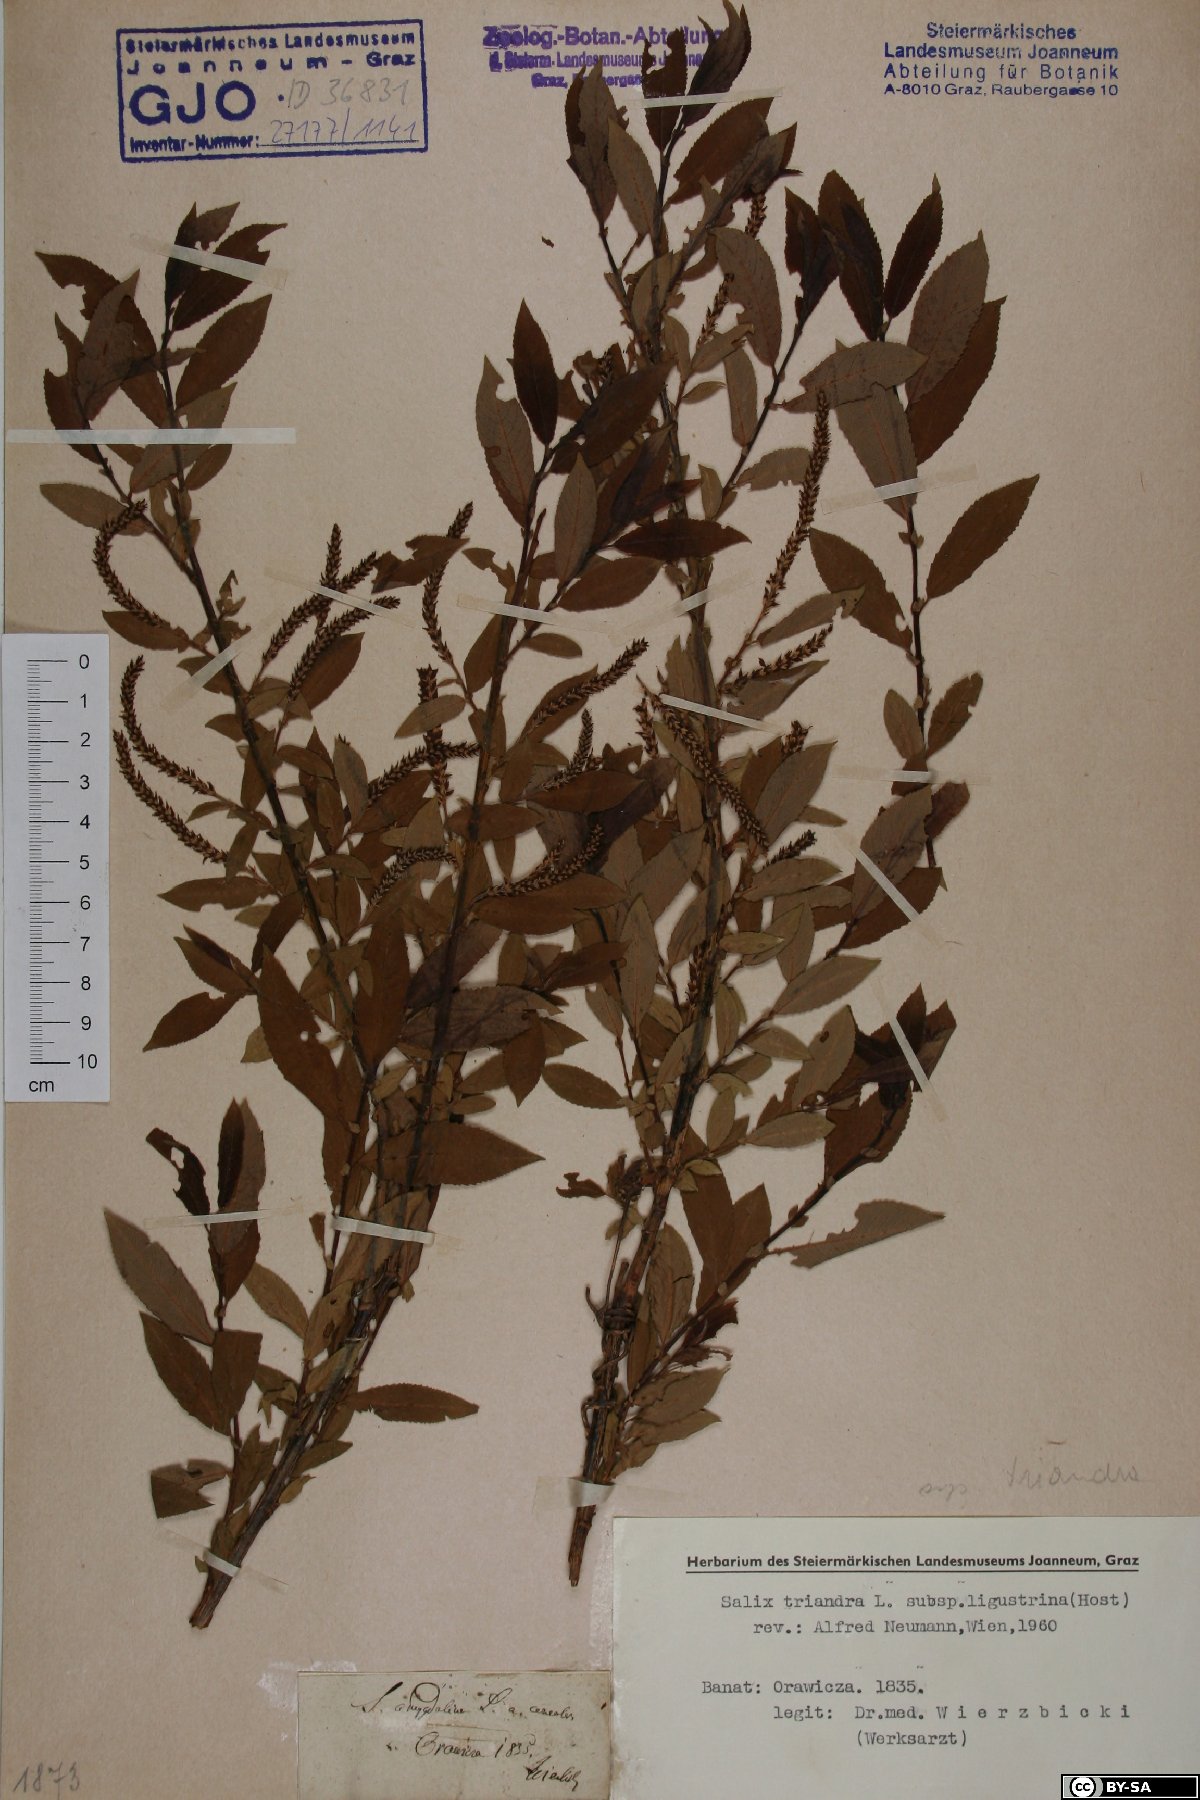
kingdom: Plantae
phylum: Tracheophyta
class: Magnoliopsida
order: Malpighiales
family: Salicaceae
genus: Salix
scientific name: Salix triandra
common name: Almond willow
